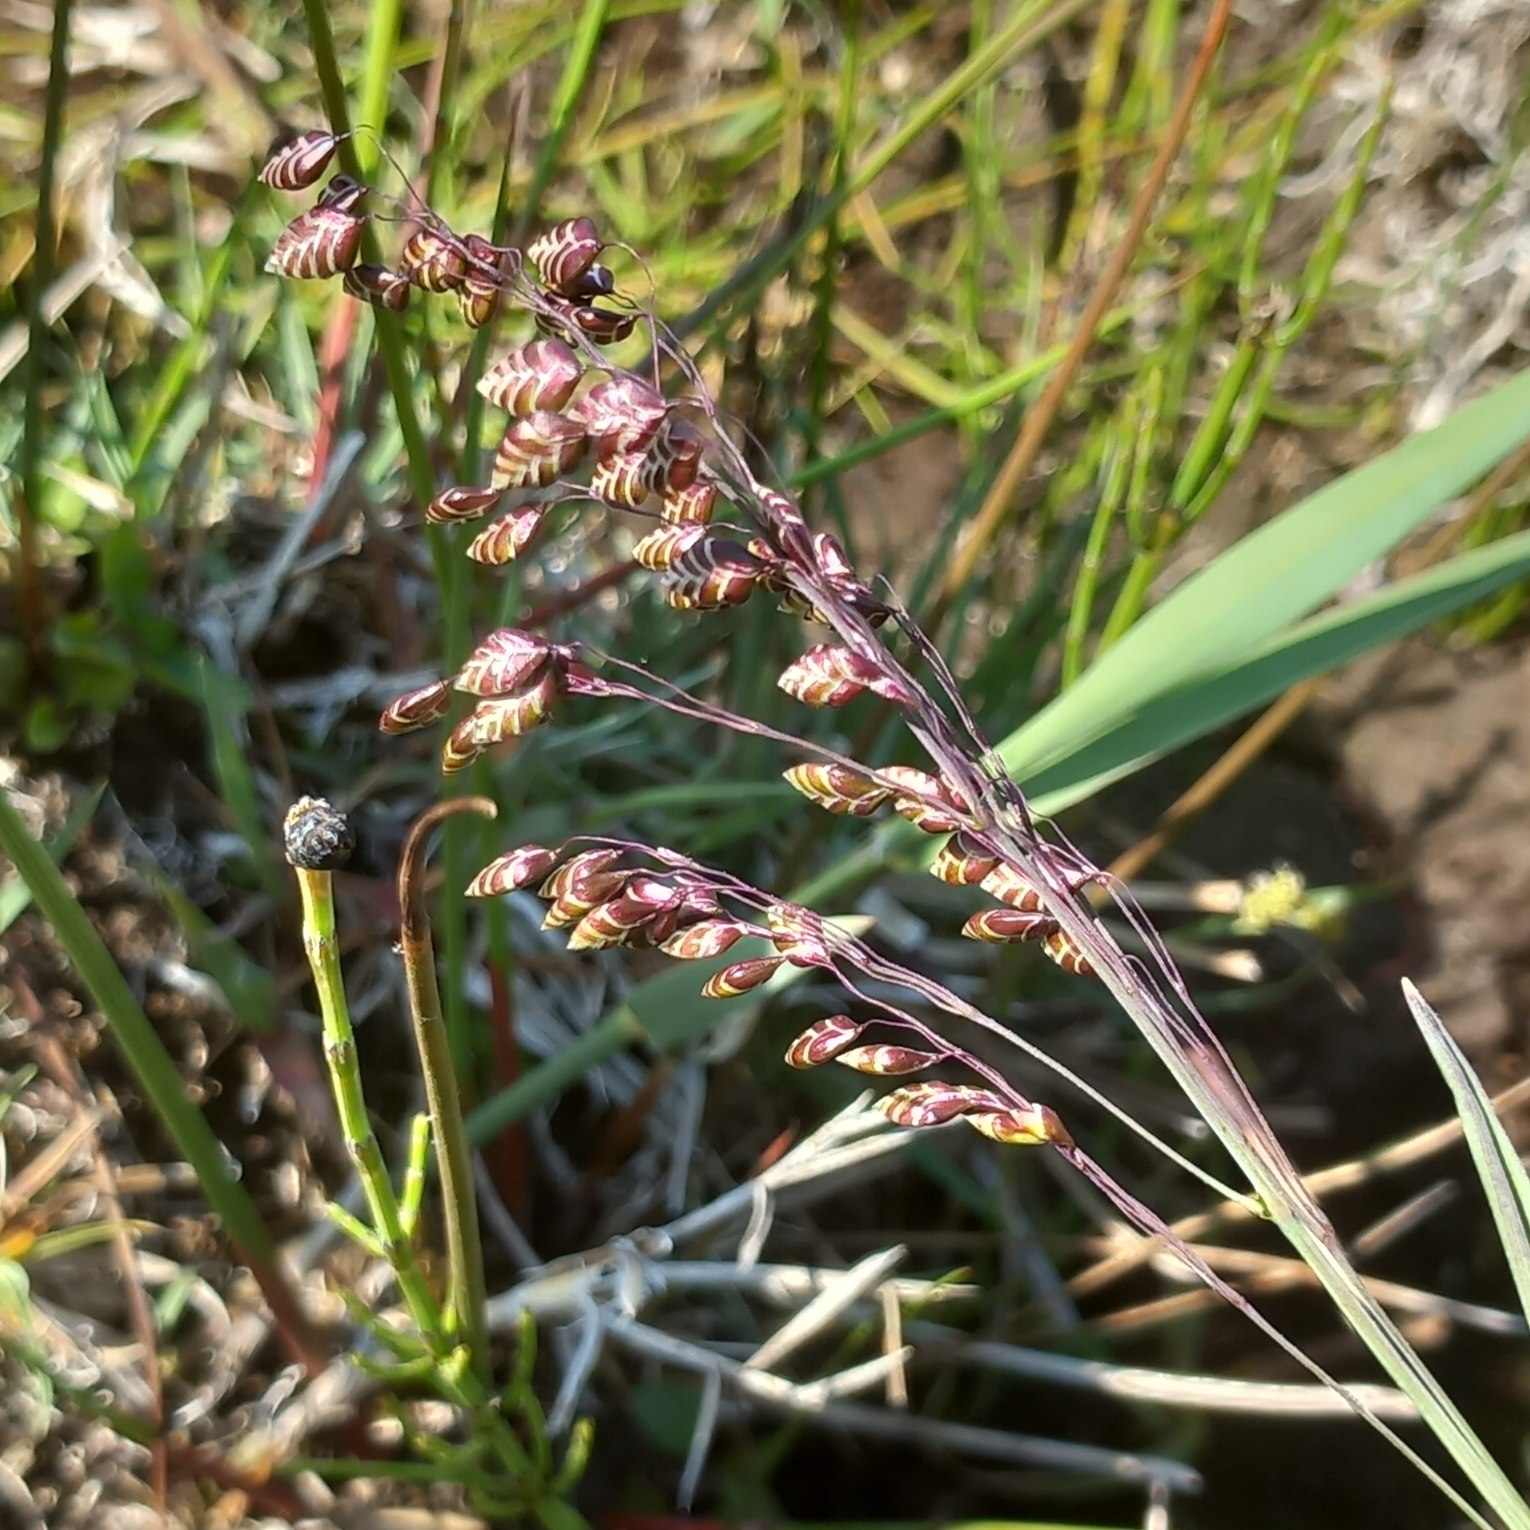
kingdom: Plantae
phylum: Tracheophyta
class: Liliopsida
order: Poales
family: Poaceae
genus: Briza
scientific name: Briza media
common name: Hjertegræs
